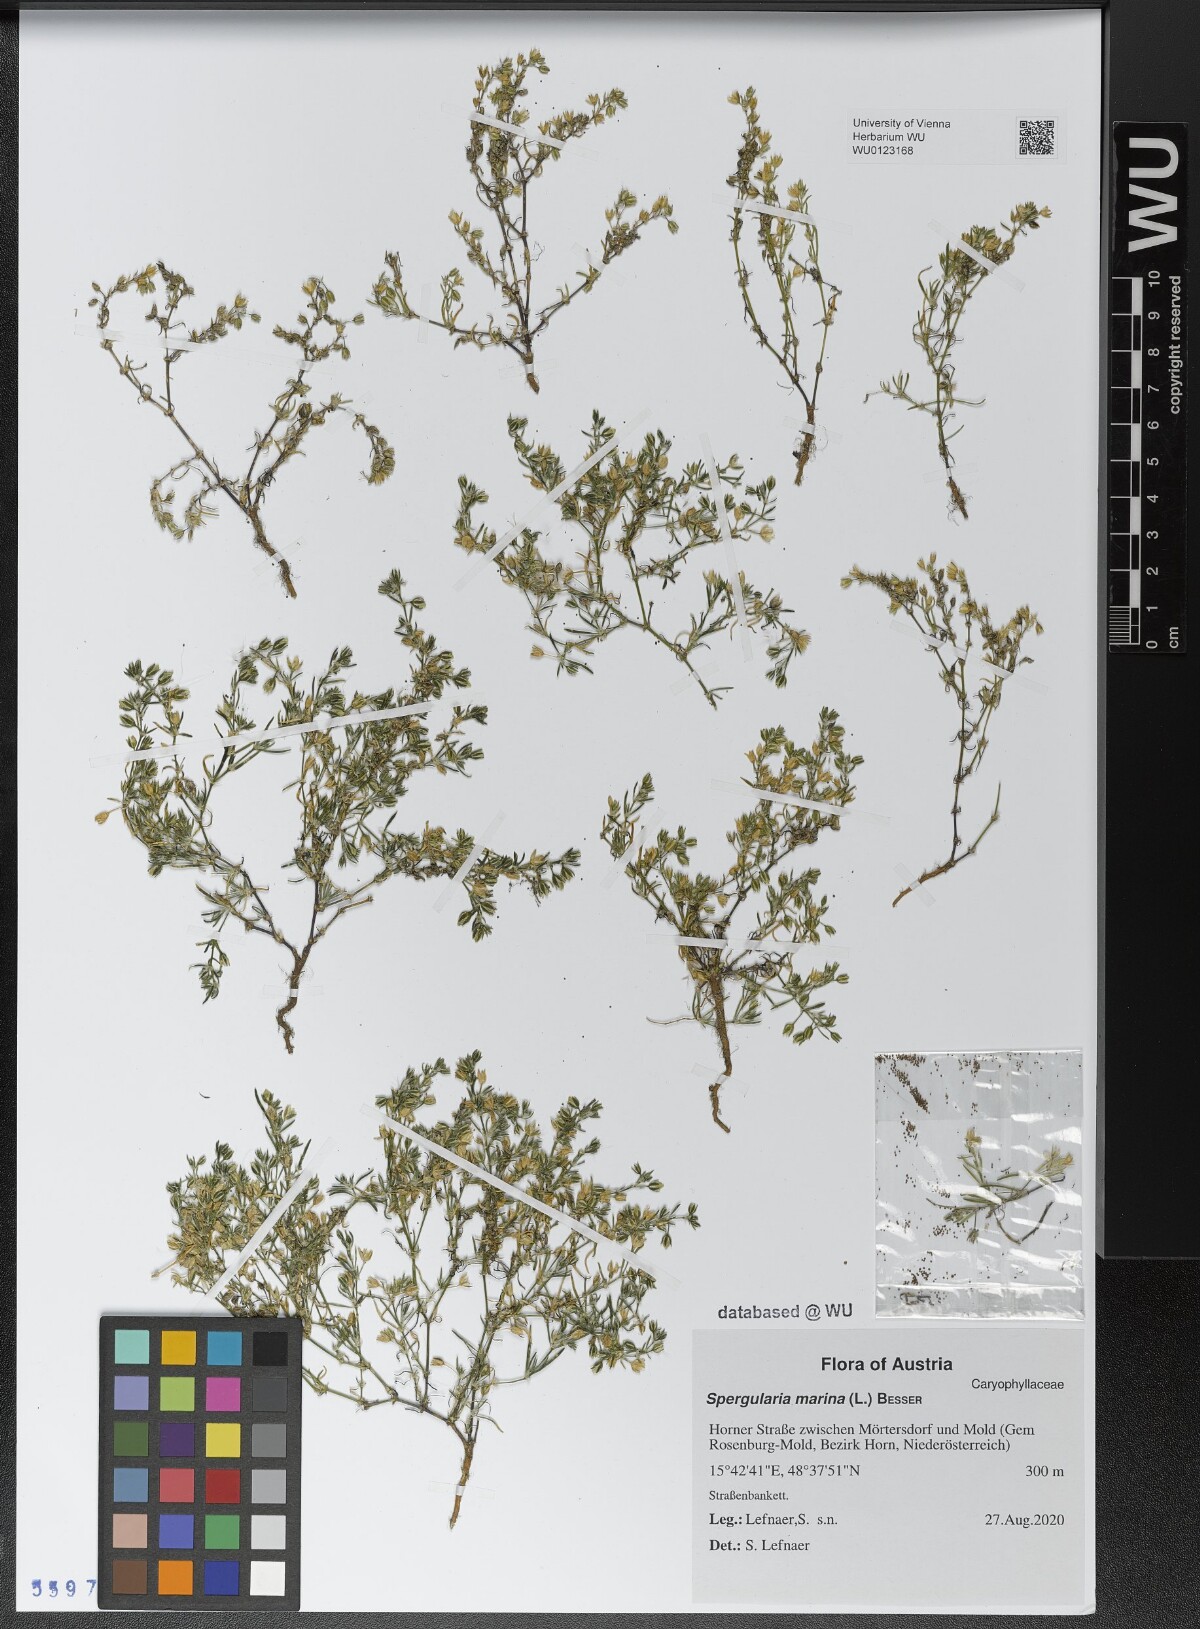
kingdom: Plantae
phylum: Tracheophyta
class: Magnoliopsida
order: Caryophyllales
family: Caryophyllaceae
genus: Spergularia
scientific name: Spergularia marina
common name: Lesser sea-spurrey
